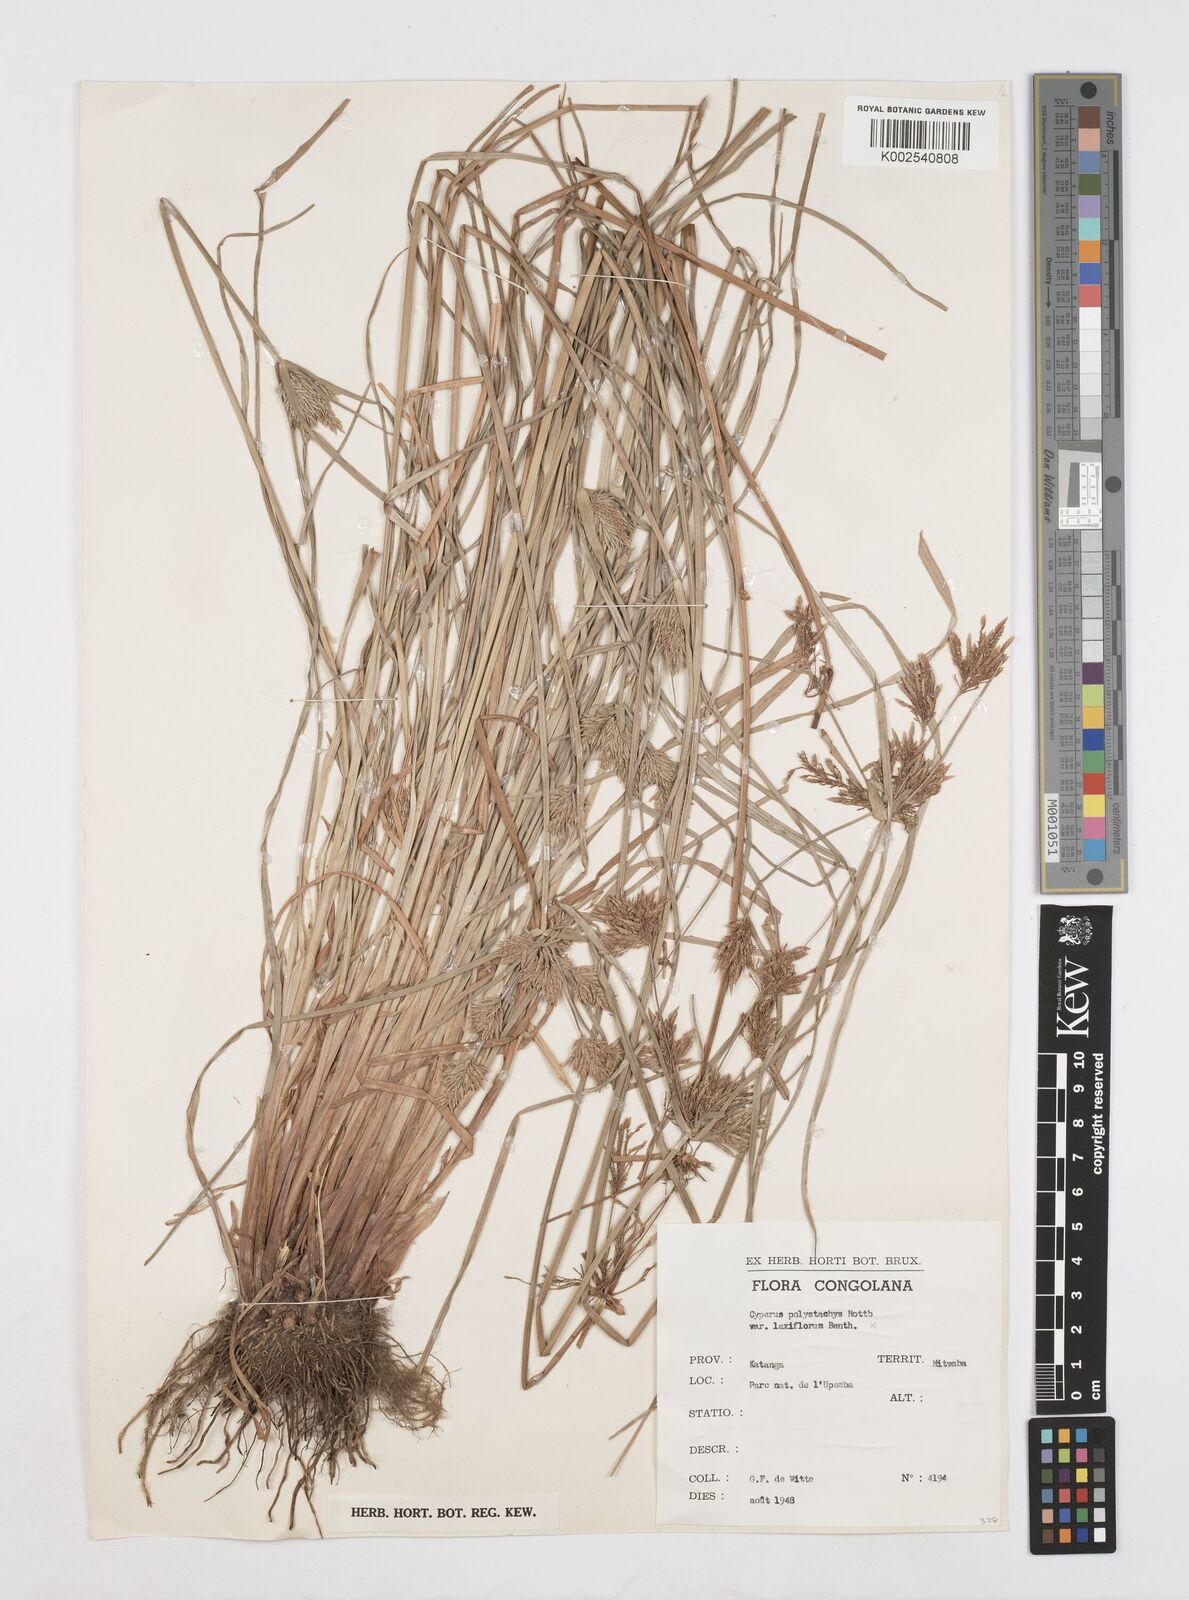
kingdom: Plantae
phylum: Tracheophyta
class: Liliopsida
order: Poales
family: Cyperaceae
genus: Cyperus
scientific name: Cyperus polystachyos
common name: Bunchy flat sedge
